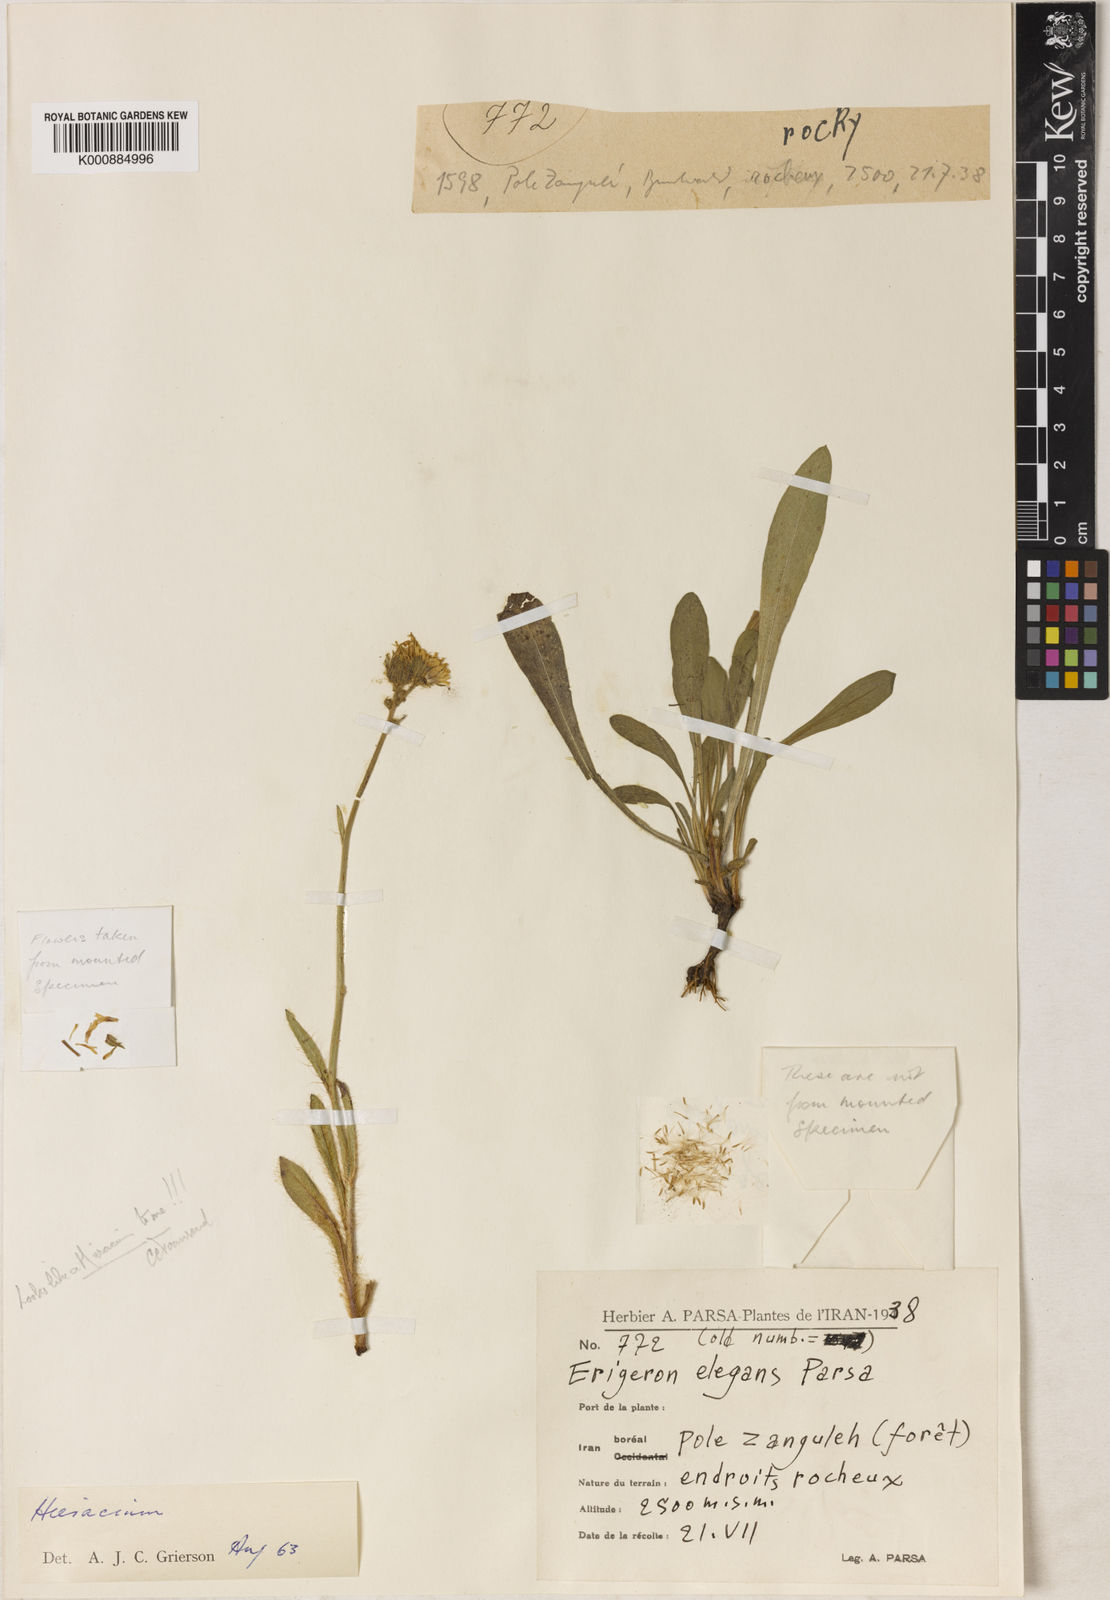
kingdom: Plantae
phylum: Tracheophyta
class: Magnoliopsida
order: Asterales
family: Asteraceae
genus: Erigeron
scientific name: Erigeron
